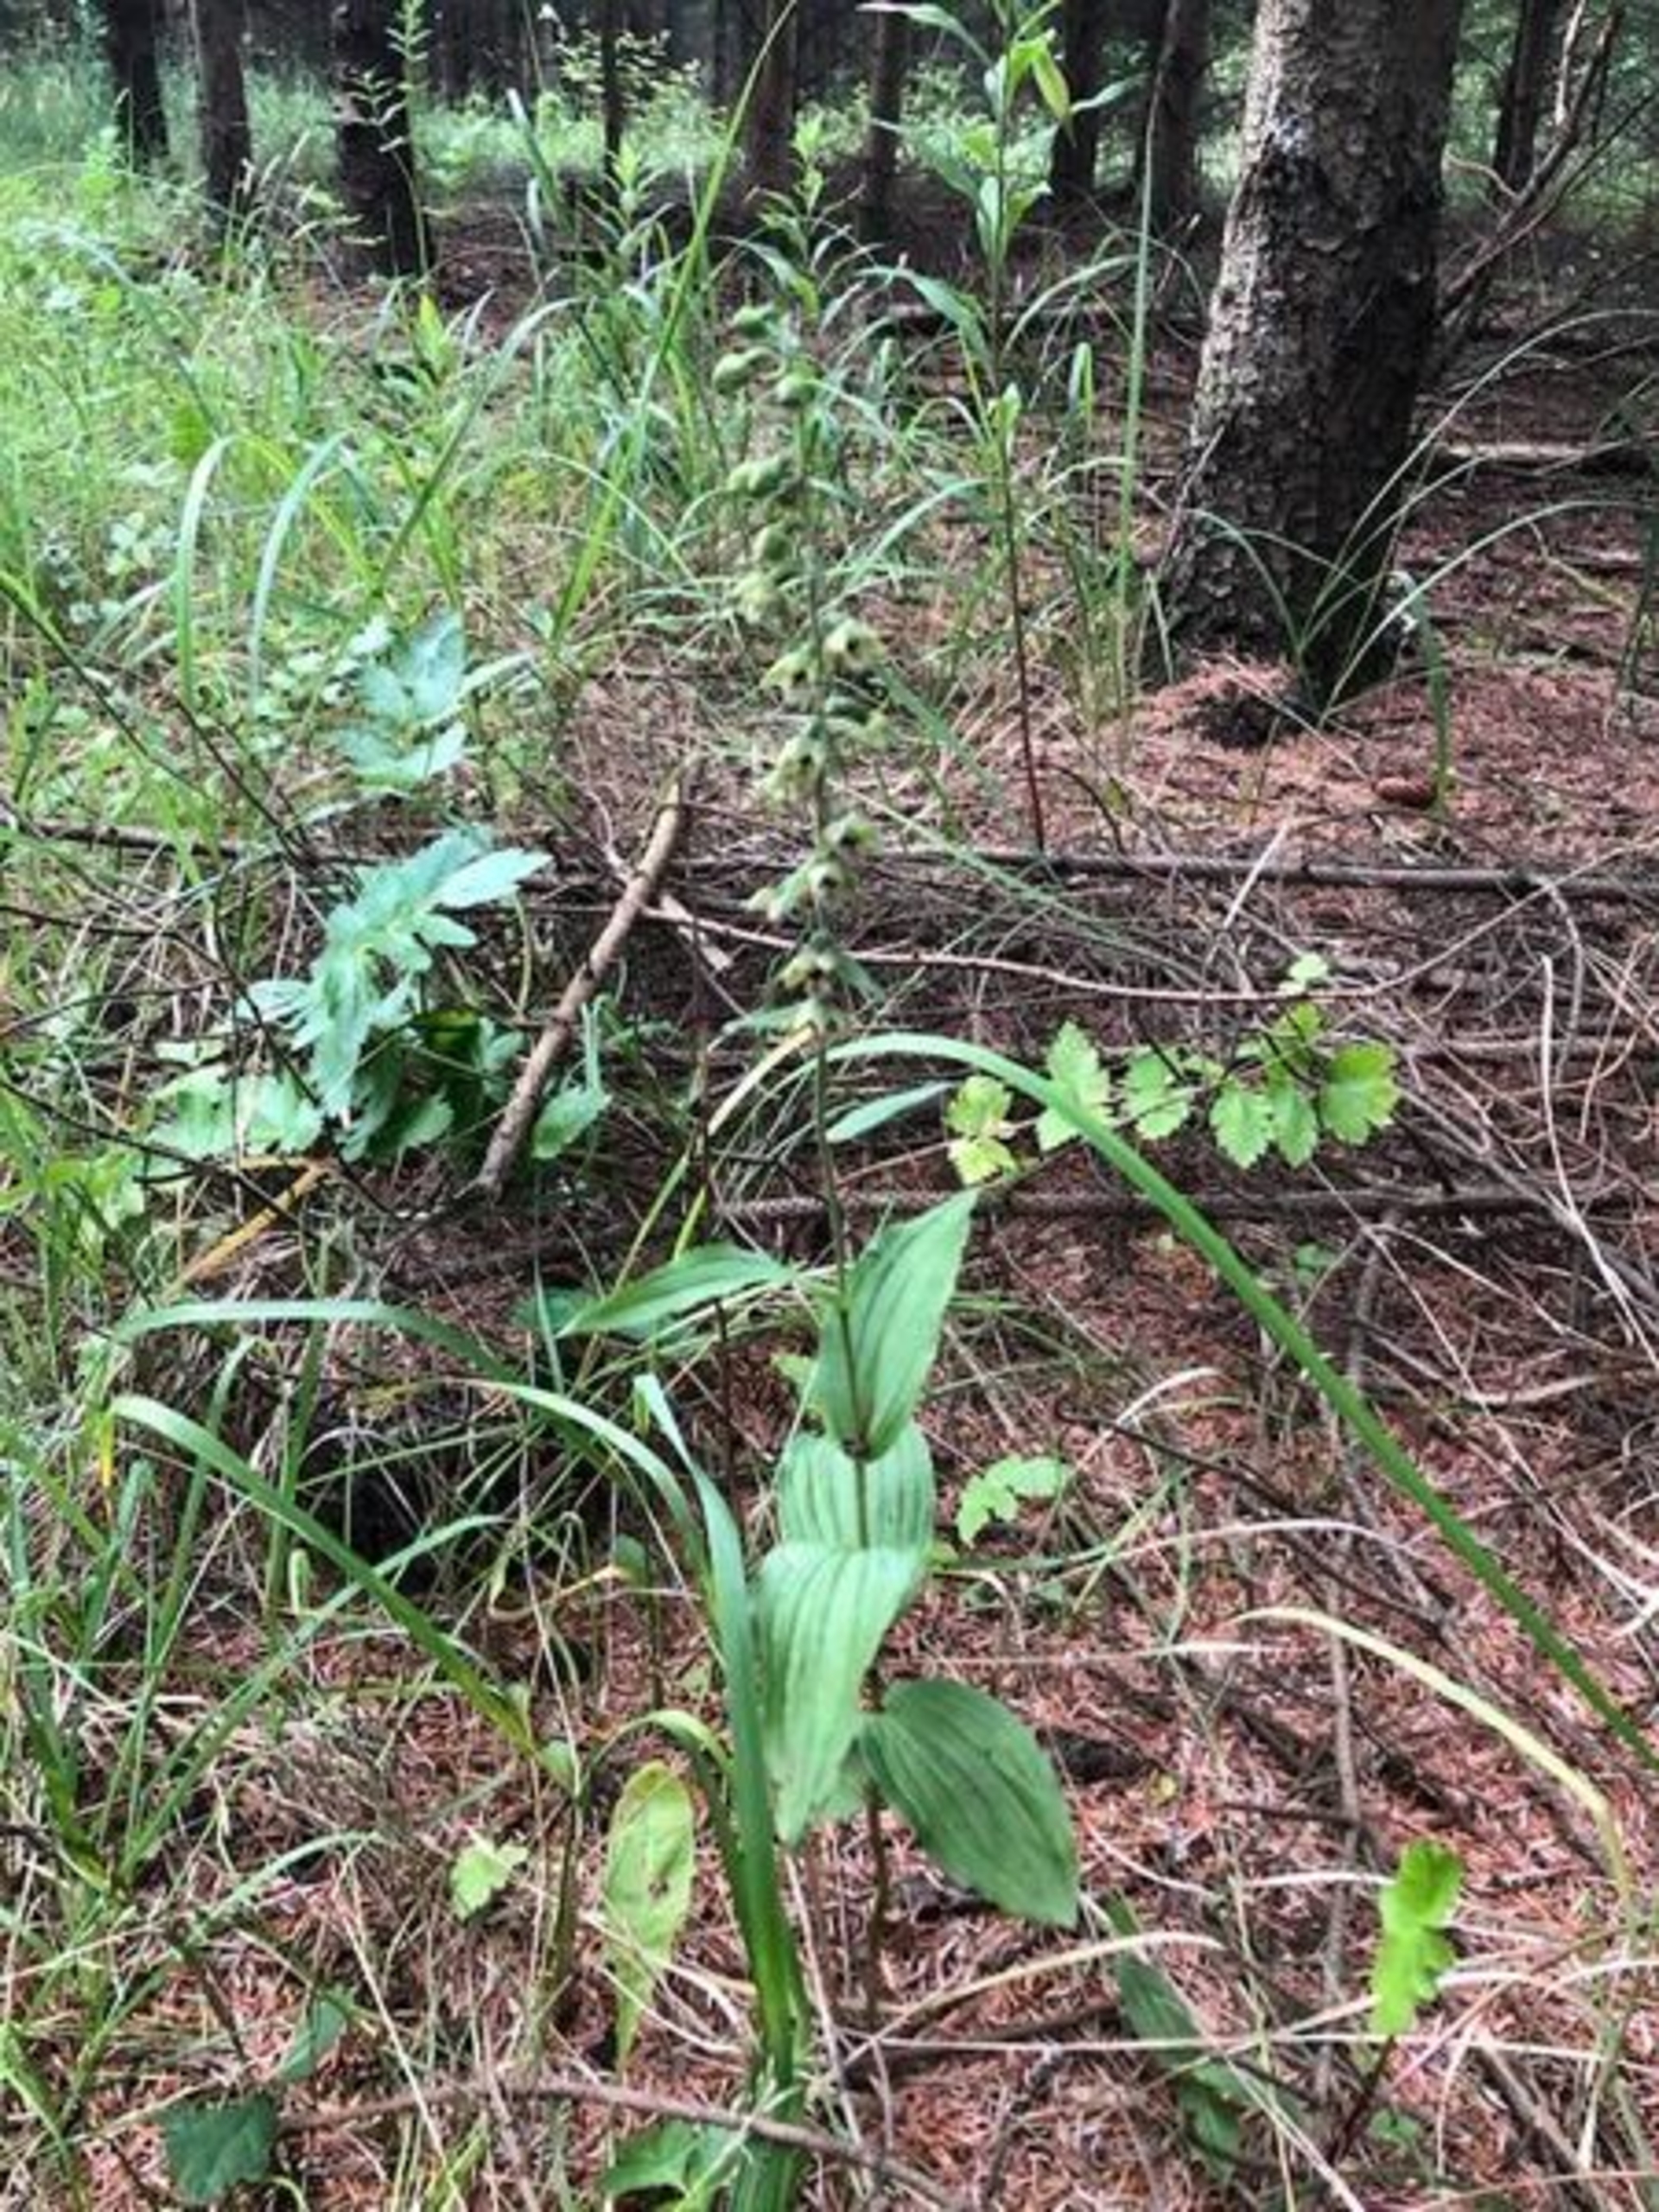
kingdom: Plantae
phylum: Tracheophyta
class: Liliopsida
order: Asparagales
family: Orchidaceae
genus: Epipactis
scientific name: Epipactis helleborine
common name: Skov-hullæbe
